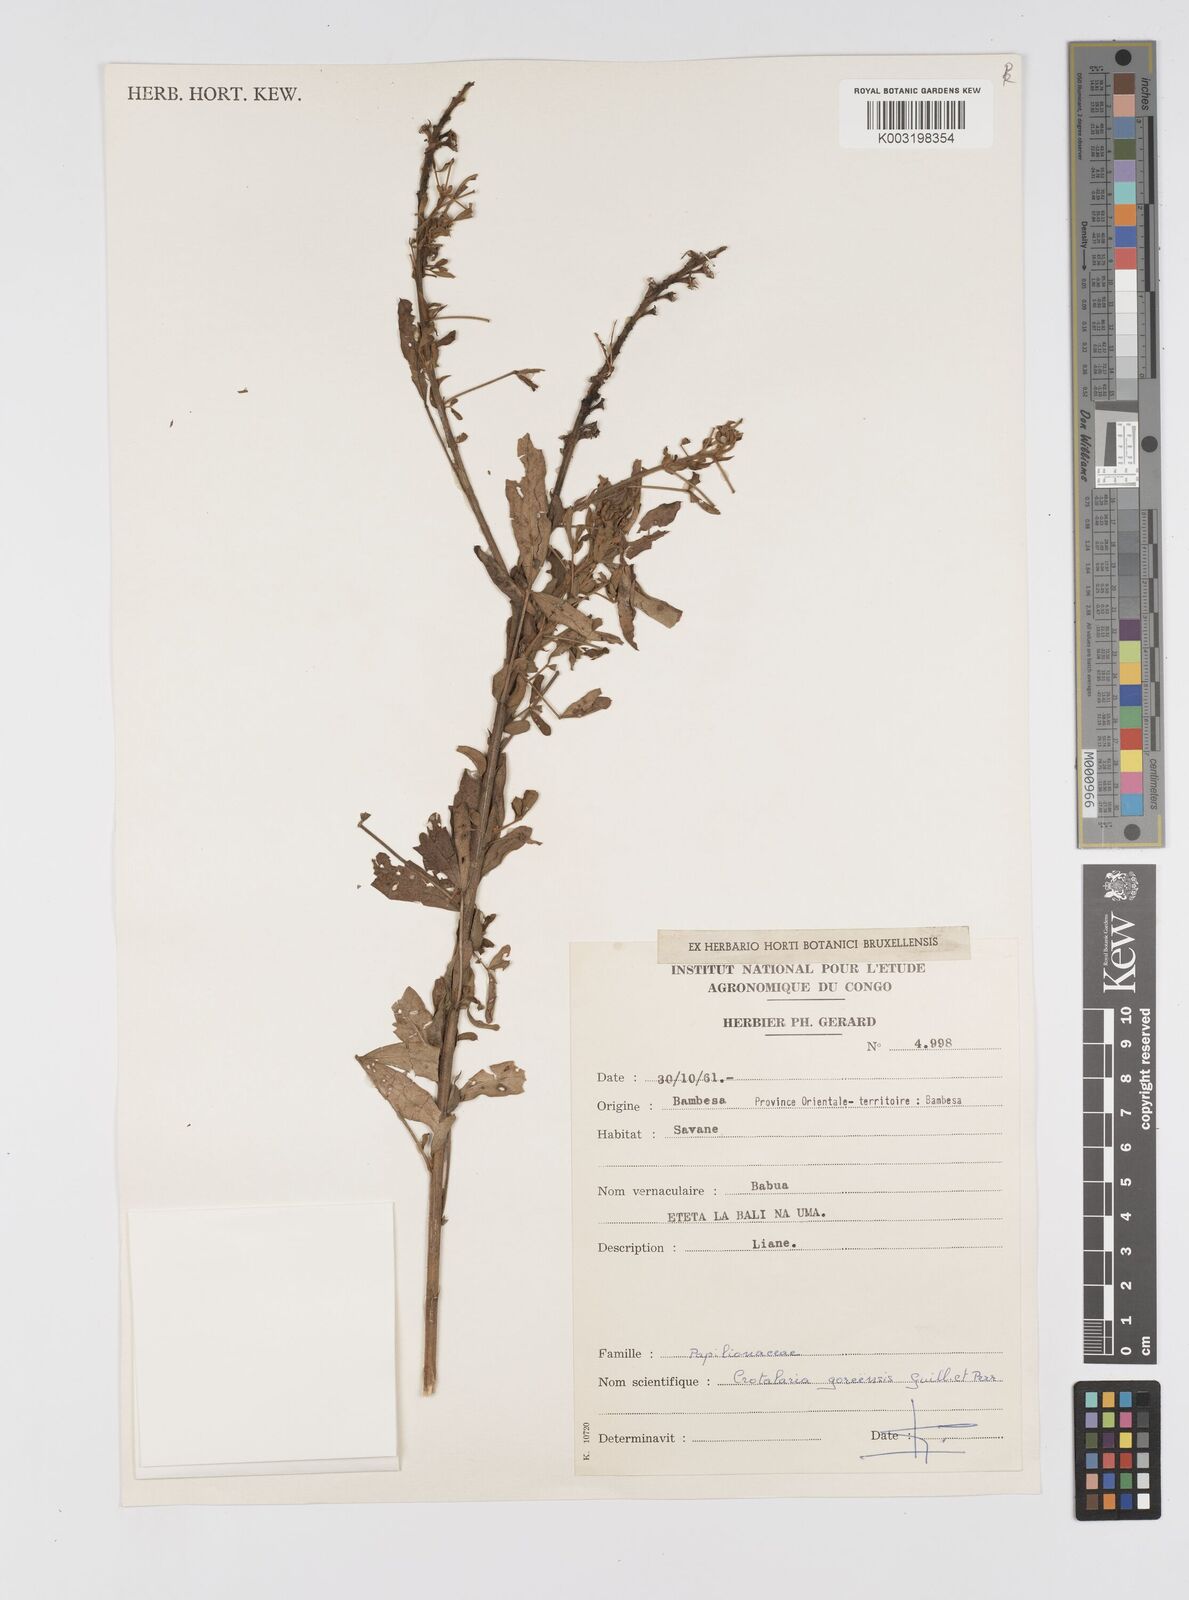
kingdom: Plantae
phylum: Tracheophyta
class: Magnoliopsida
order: Fabales
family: Fabaceae
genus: Crotalaria
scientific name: Crotalaria goreensis
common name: Gambia-pea
